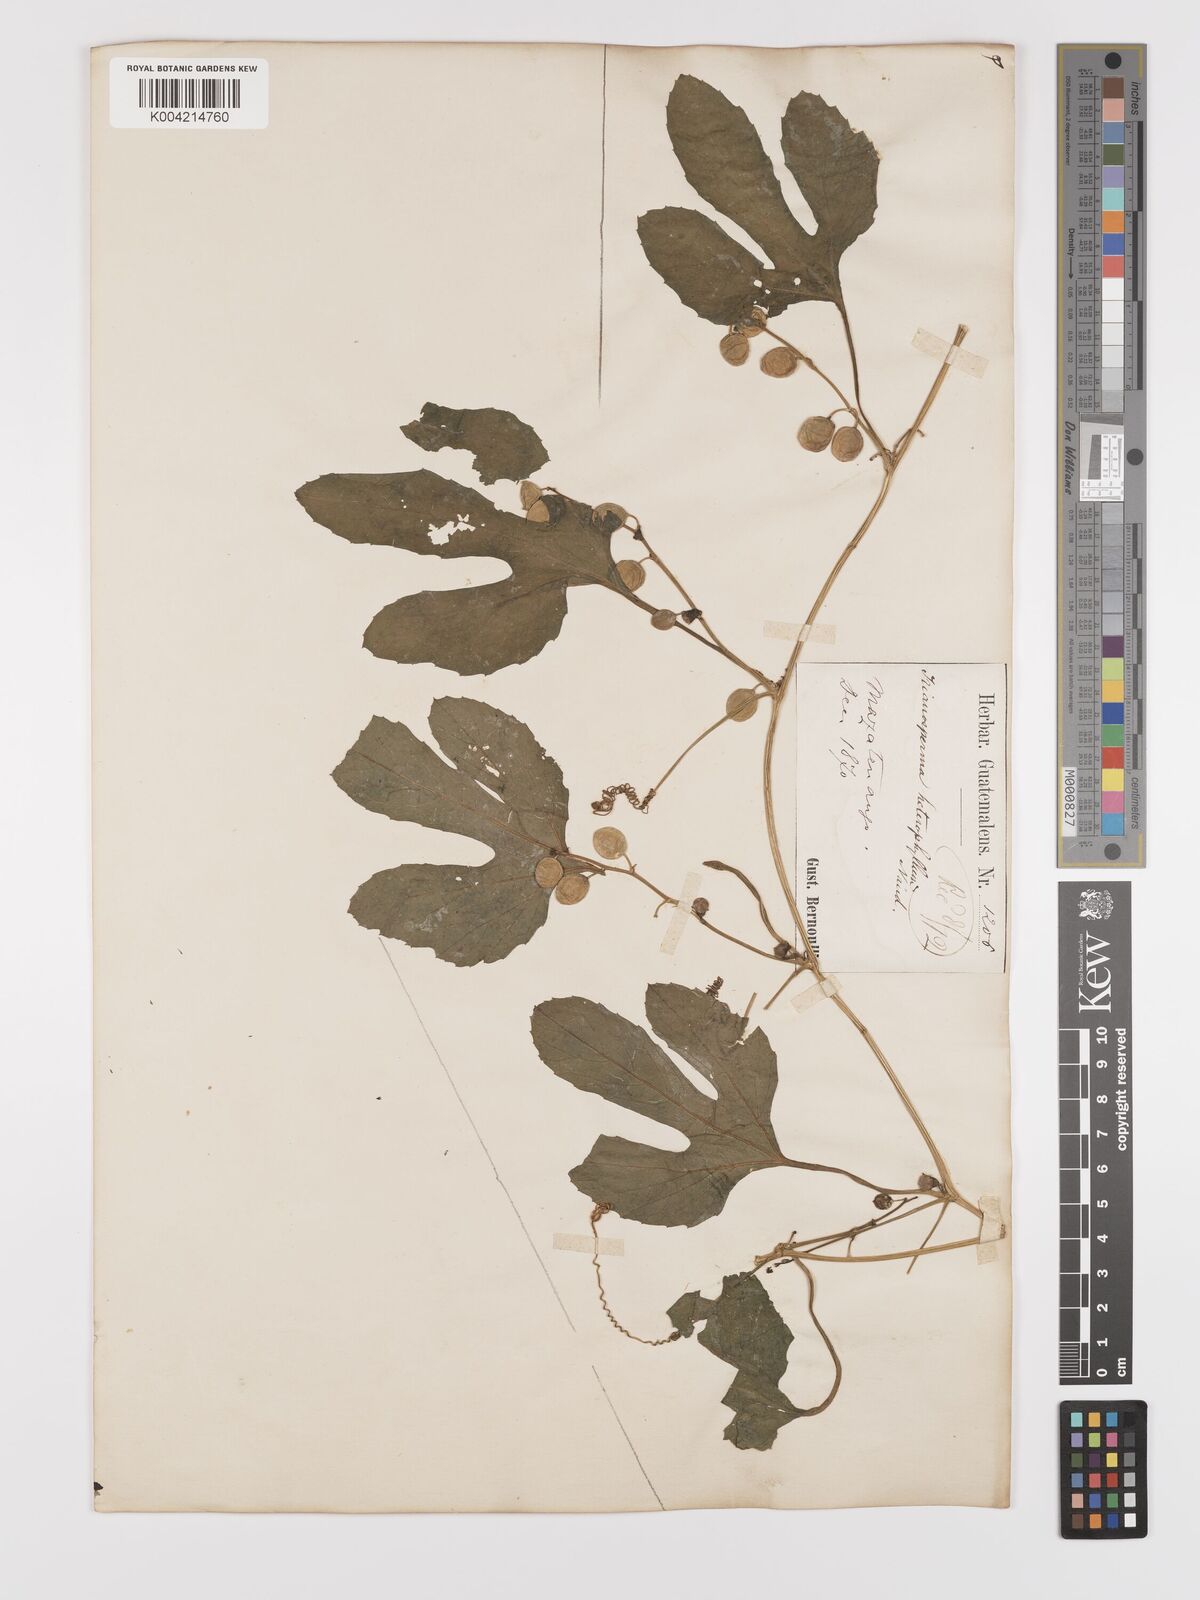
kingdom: Plantae
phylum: Tracheophyta
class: Magnoliopsida
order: Cucurbitales
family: Cucurbitaceae
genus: Cayaponia
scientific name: Cayaponia attenuata
